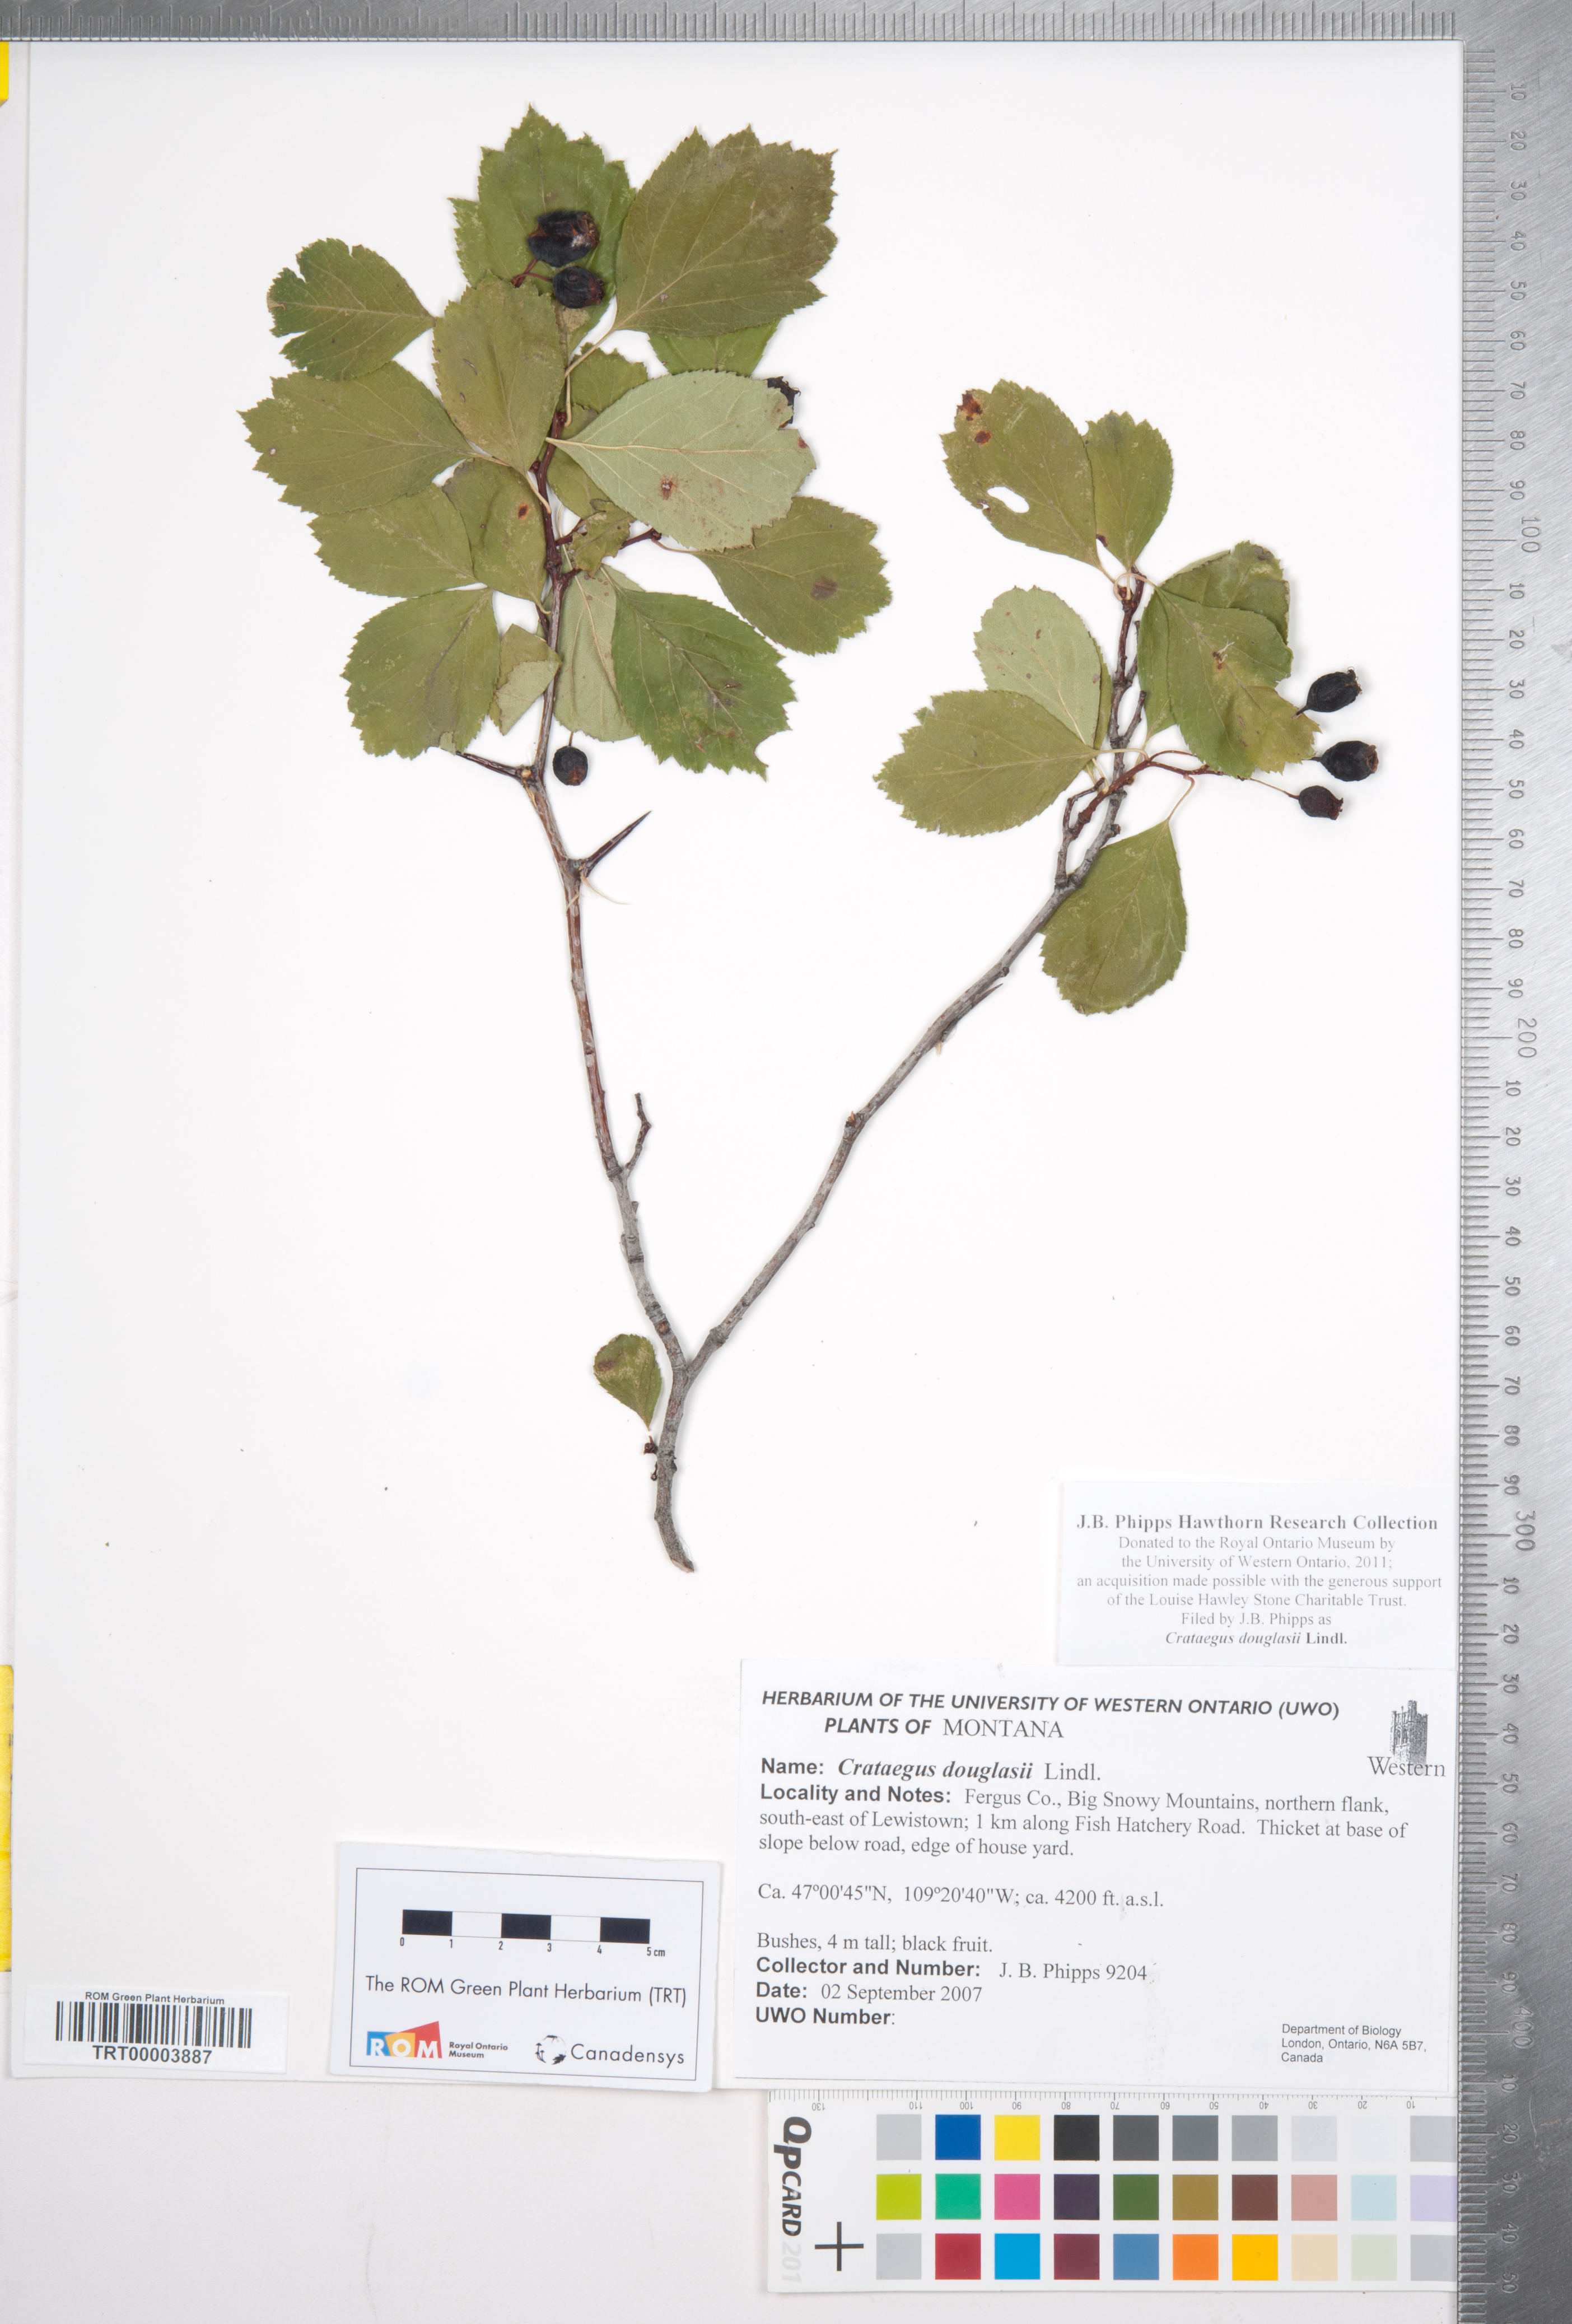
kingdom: Plantae
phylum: Tracheophyta
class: Magnoliopsida
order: Rosales
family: Rosaceae
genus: Crataegus
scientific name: Crataegus douglasii
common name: Black hawthorn
